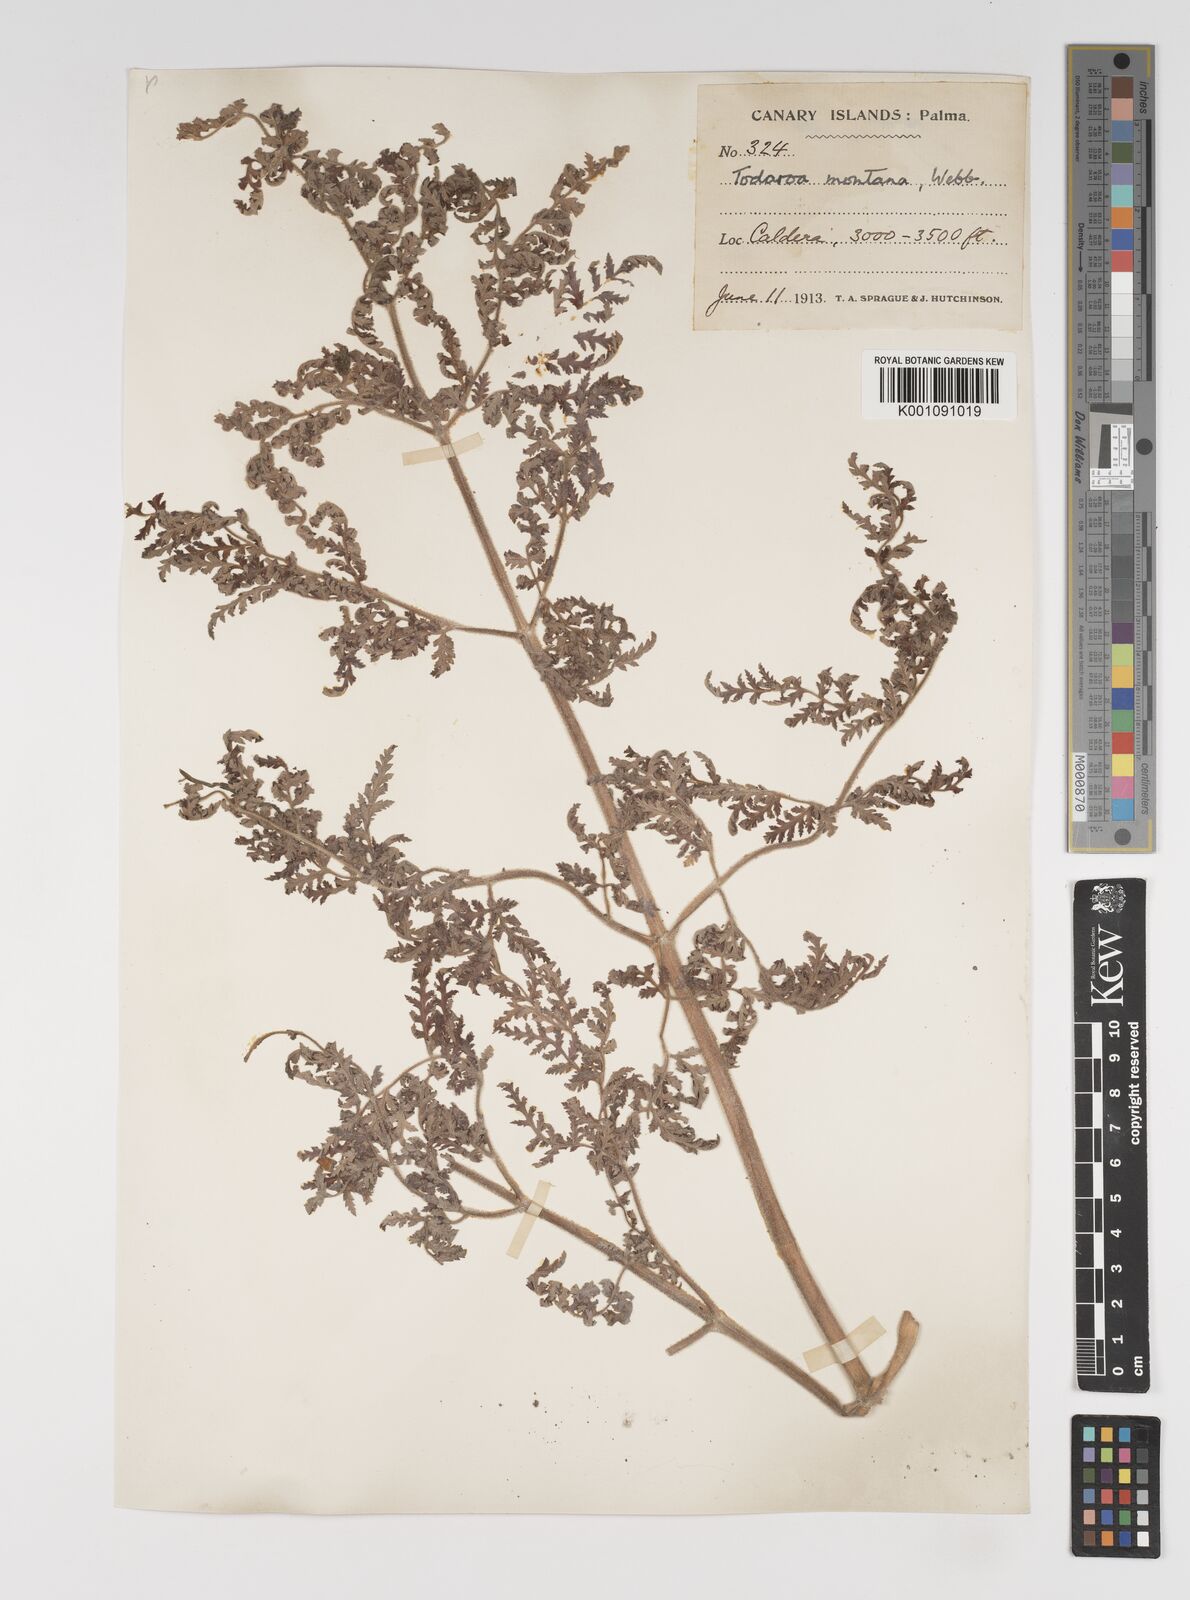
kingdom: Plantae
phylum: Tracheophyta
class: Magnoliopsida
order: Apiales
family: Apiaceae
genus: Athamanta
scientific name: Athamanta montana
